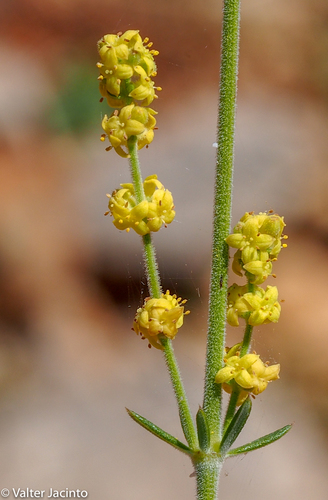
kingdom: Plantae
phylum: Tracheophyta
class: Magnoliopsida
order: Gentianales
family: Rubiaceae
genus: Galium
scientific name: Galium
